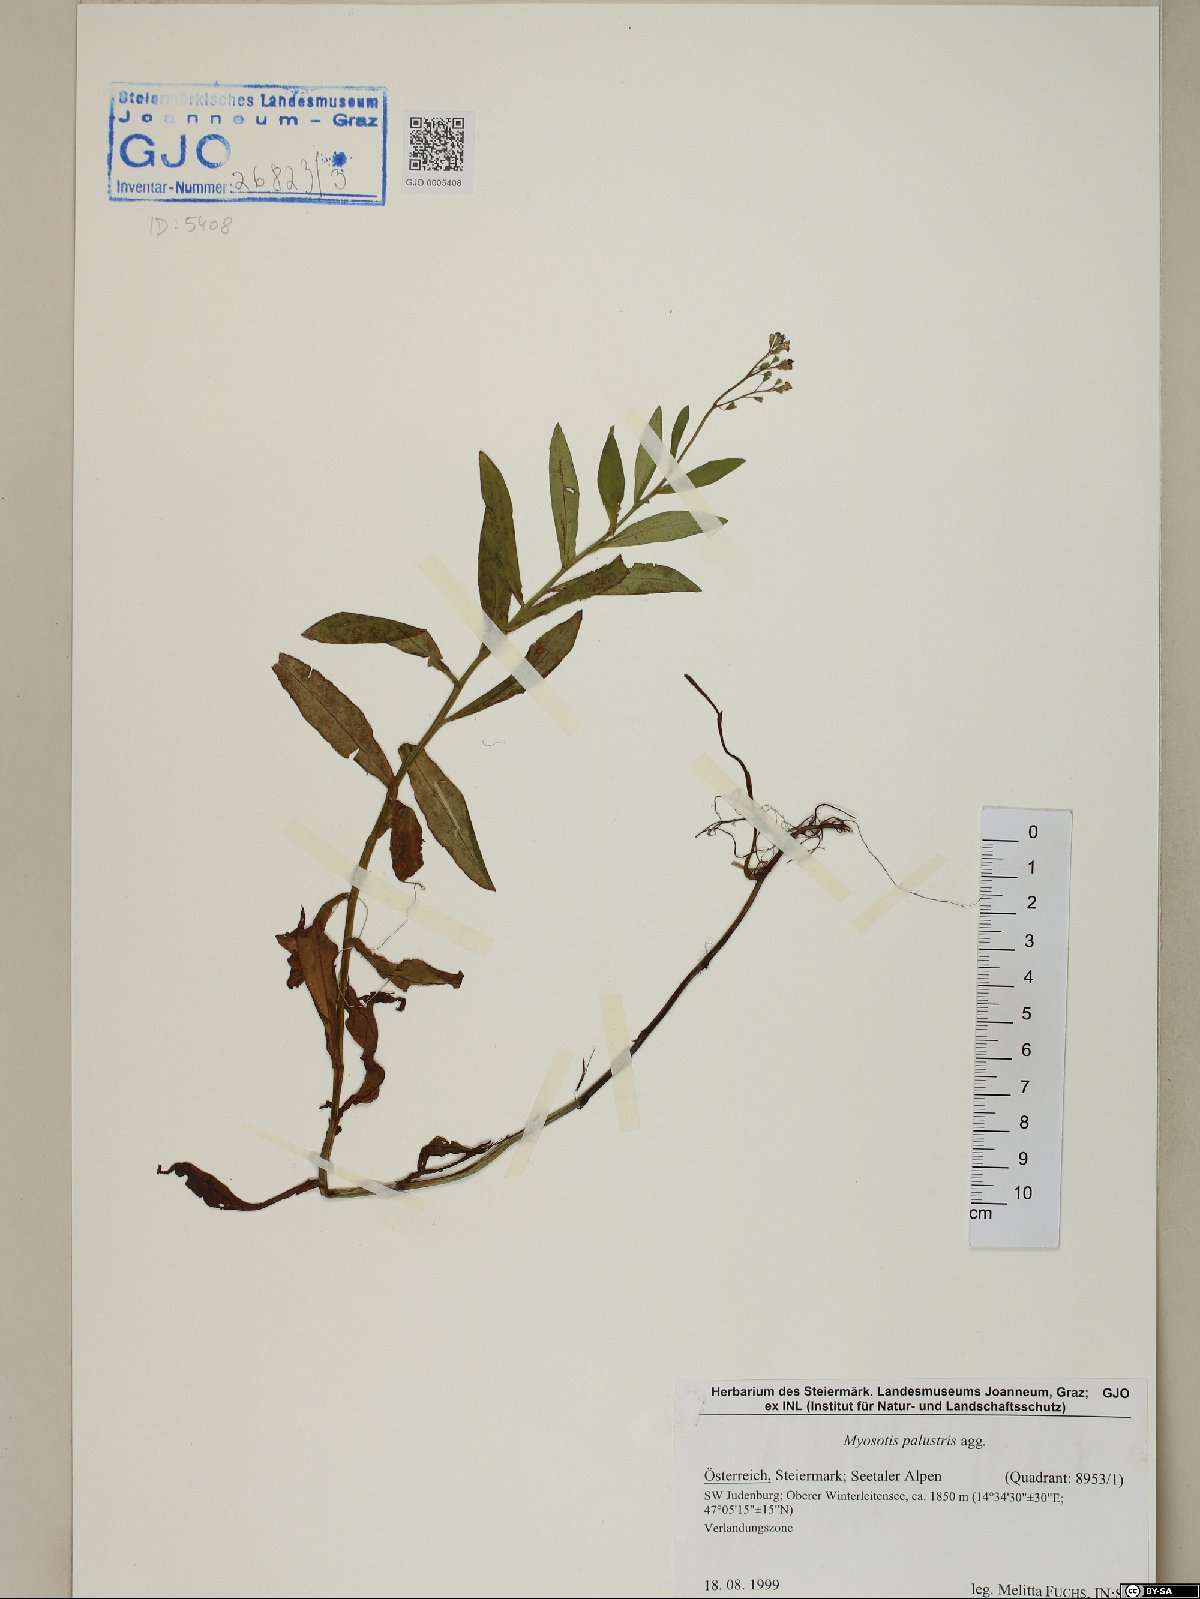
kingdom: Plantae
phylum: Tracheophyta
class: Magnoliopsida
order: Boraginales
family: Boraginaceae
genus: Myosotis
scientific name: Myosotis scorpioides
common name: Water forget-me-not
